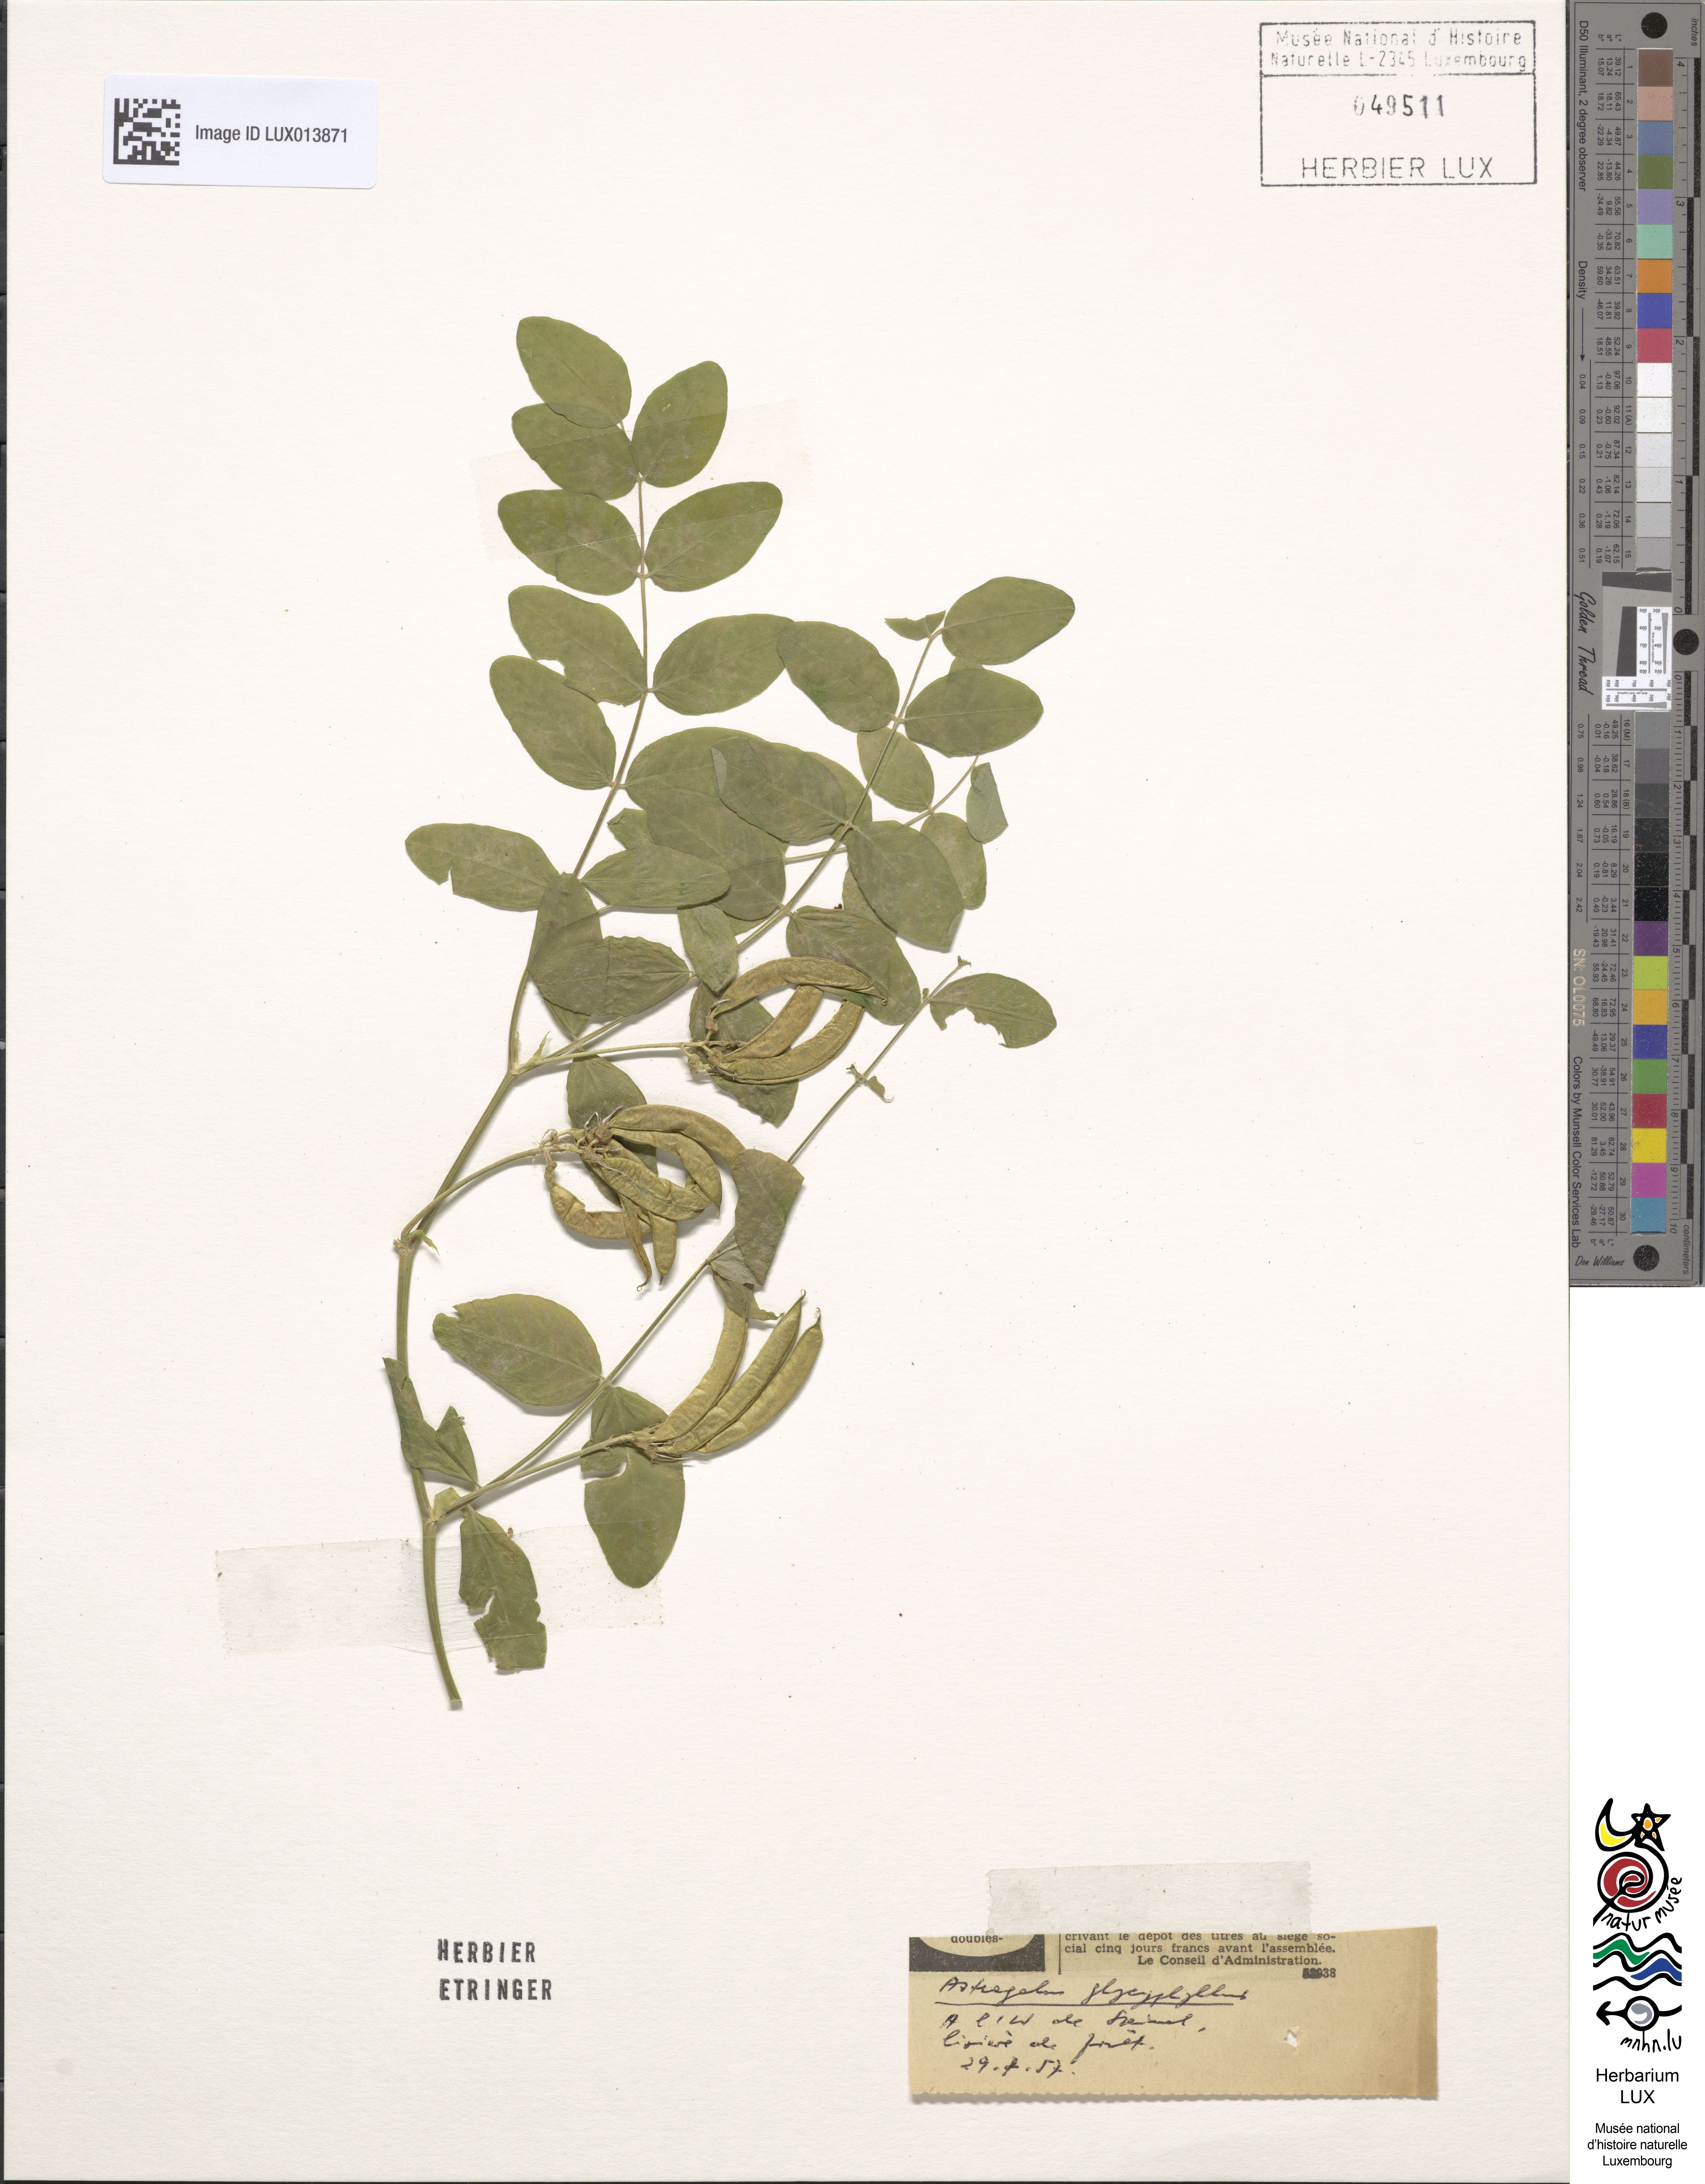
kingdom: Plantae
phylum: Tracheophyta
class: Magnoliopsida
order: Fabales
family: Fabaceae
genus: Astragalus
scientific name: Astragalus glycyphyllos
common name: Wild liquorice
